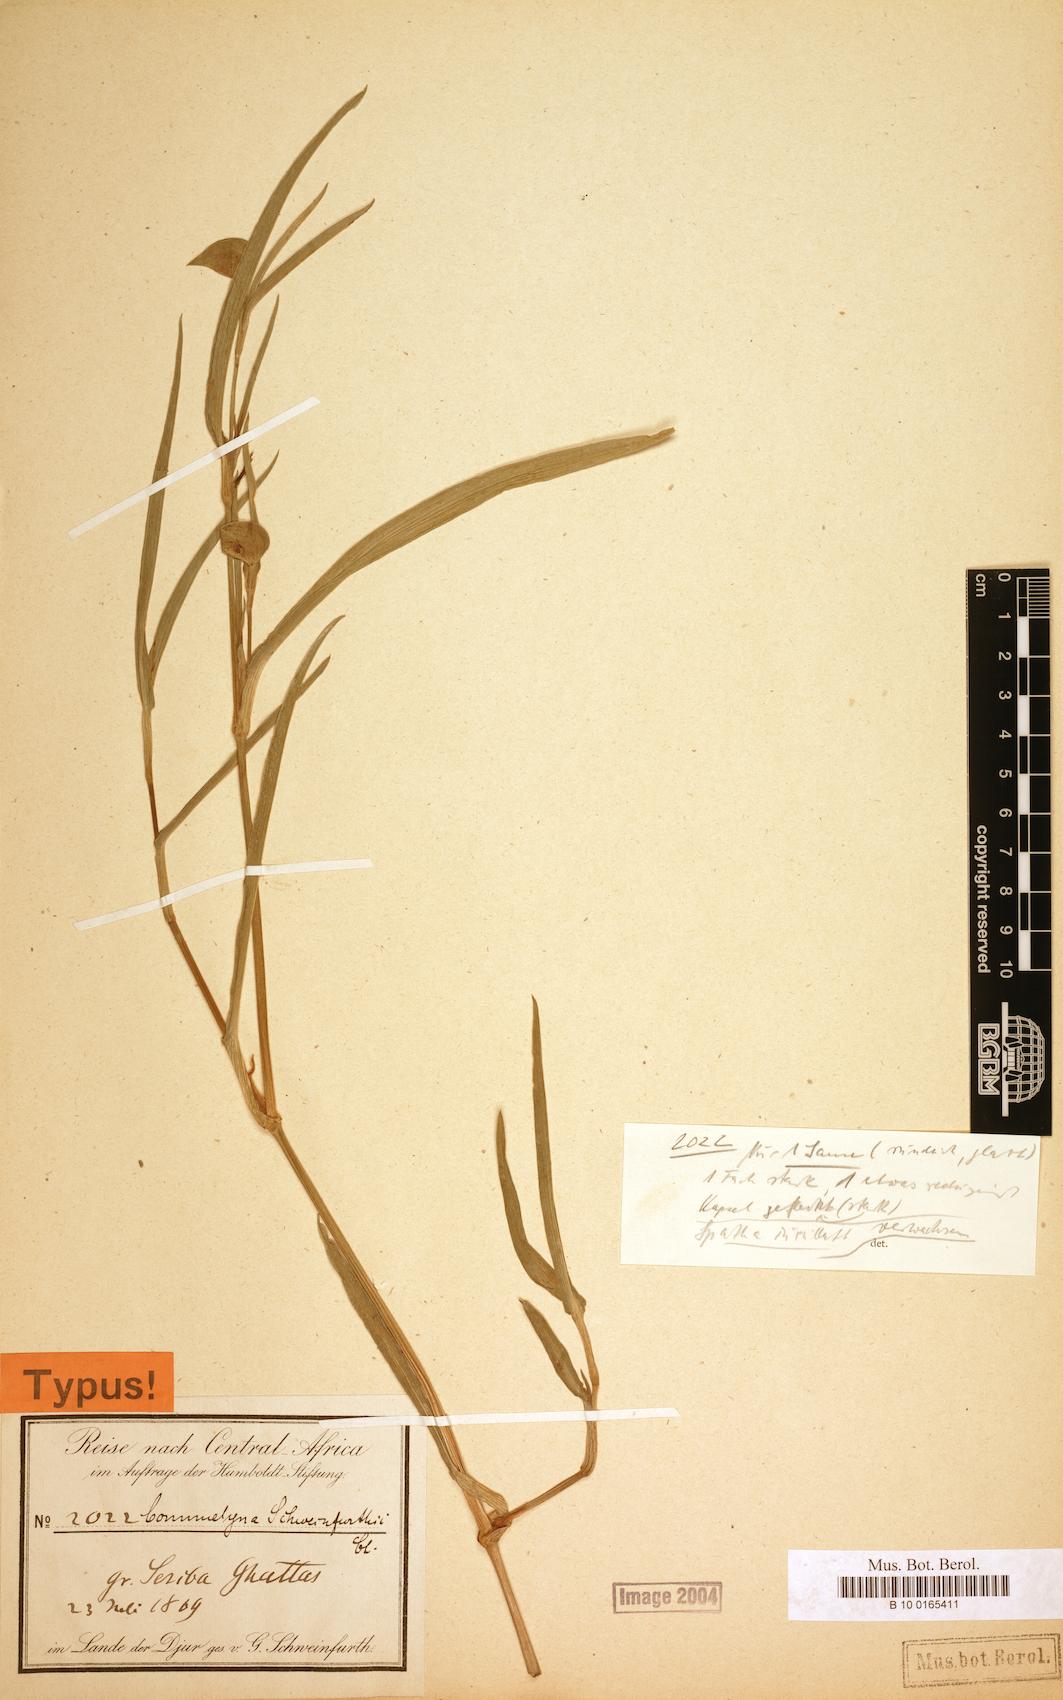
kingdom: Plantae
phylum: Tracheophyta
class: Liliopsida
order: Commelinales
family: Commelinaceae
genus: Commelina
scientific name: Commelina schweinfurthii
